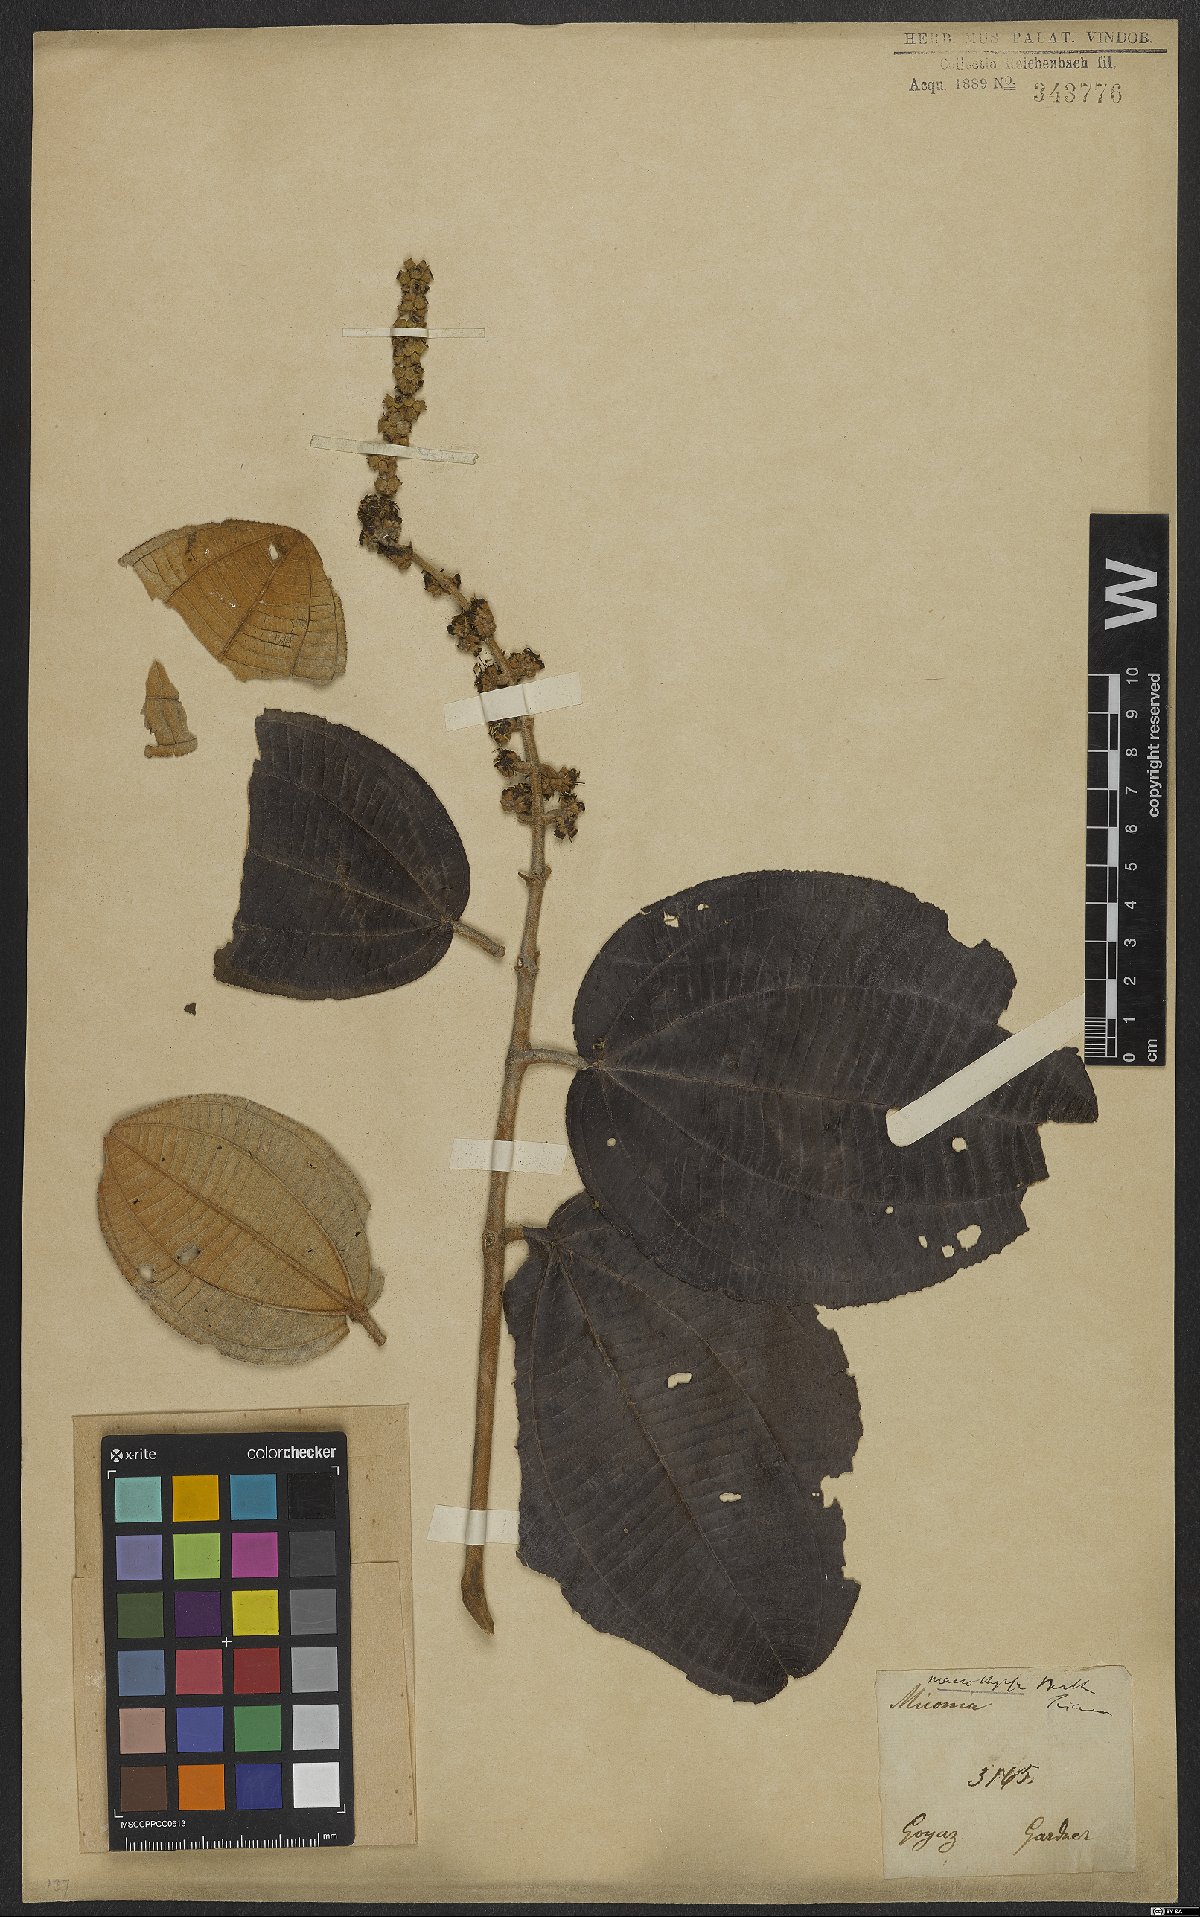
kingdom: Plantae
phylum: Tracheophyta
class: Magnoliopsida
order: Myrtales
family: Melastomataceae
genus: Miconia
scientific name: Miconia aplostachya
